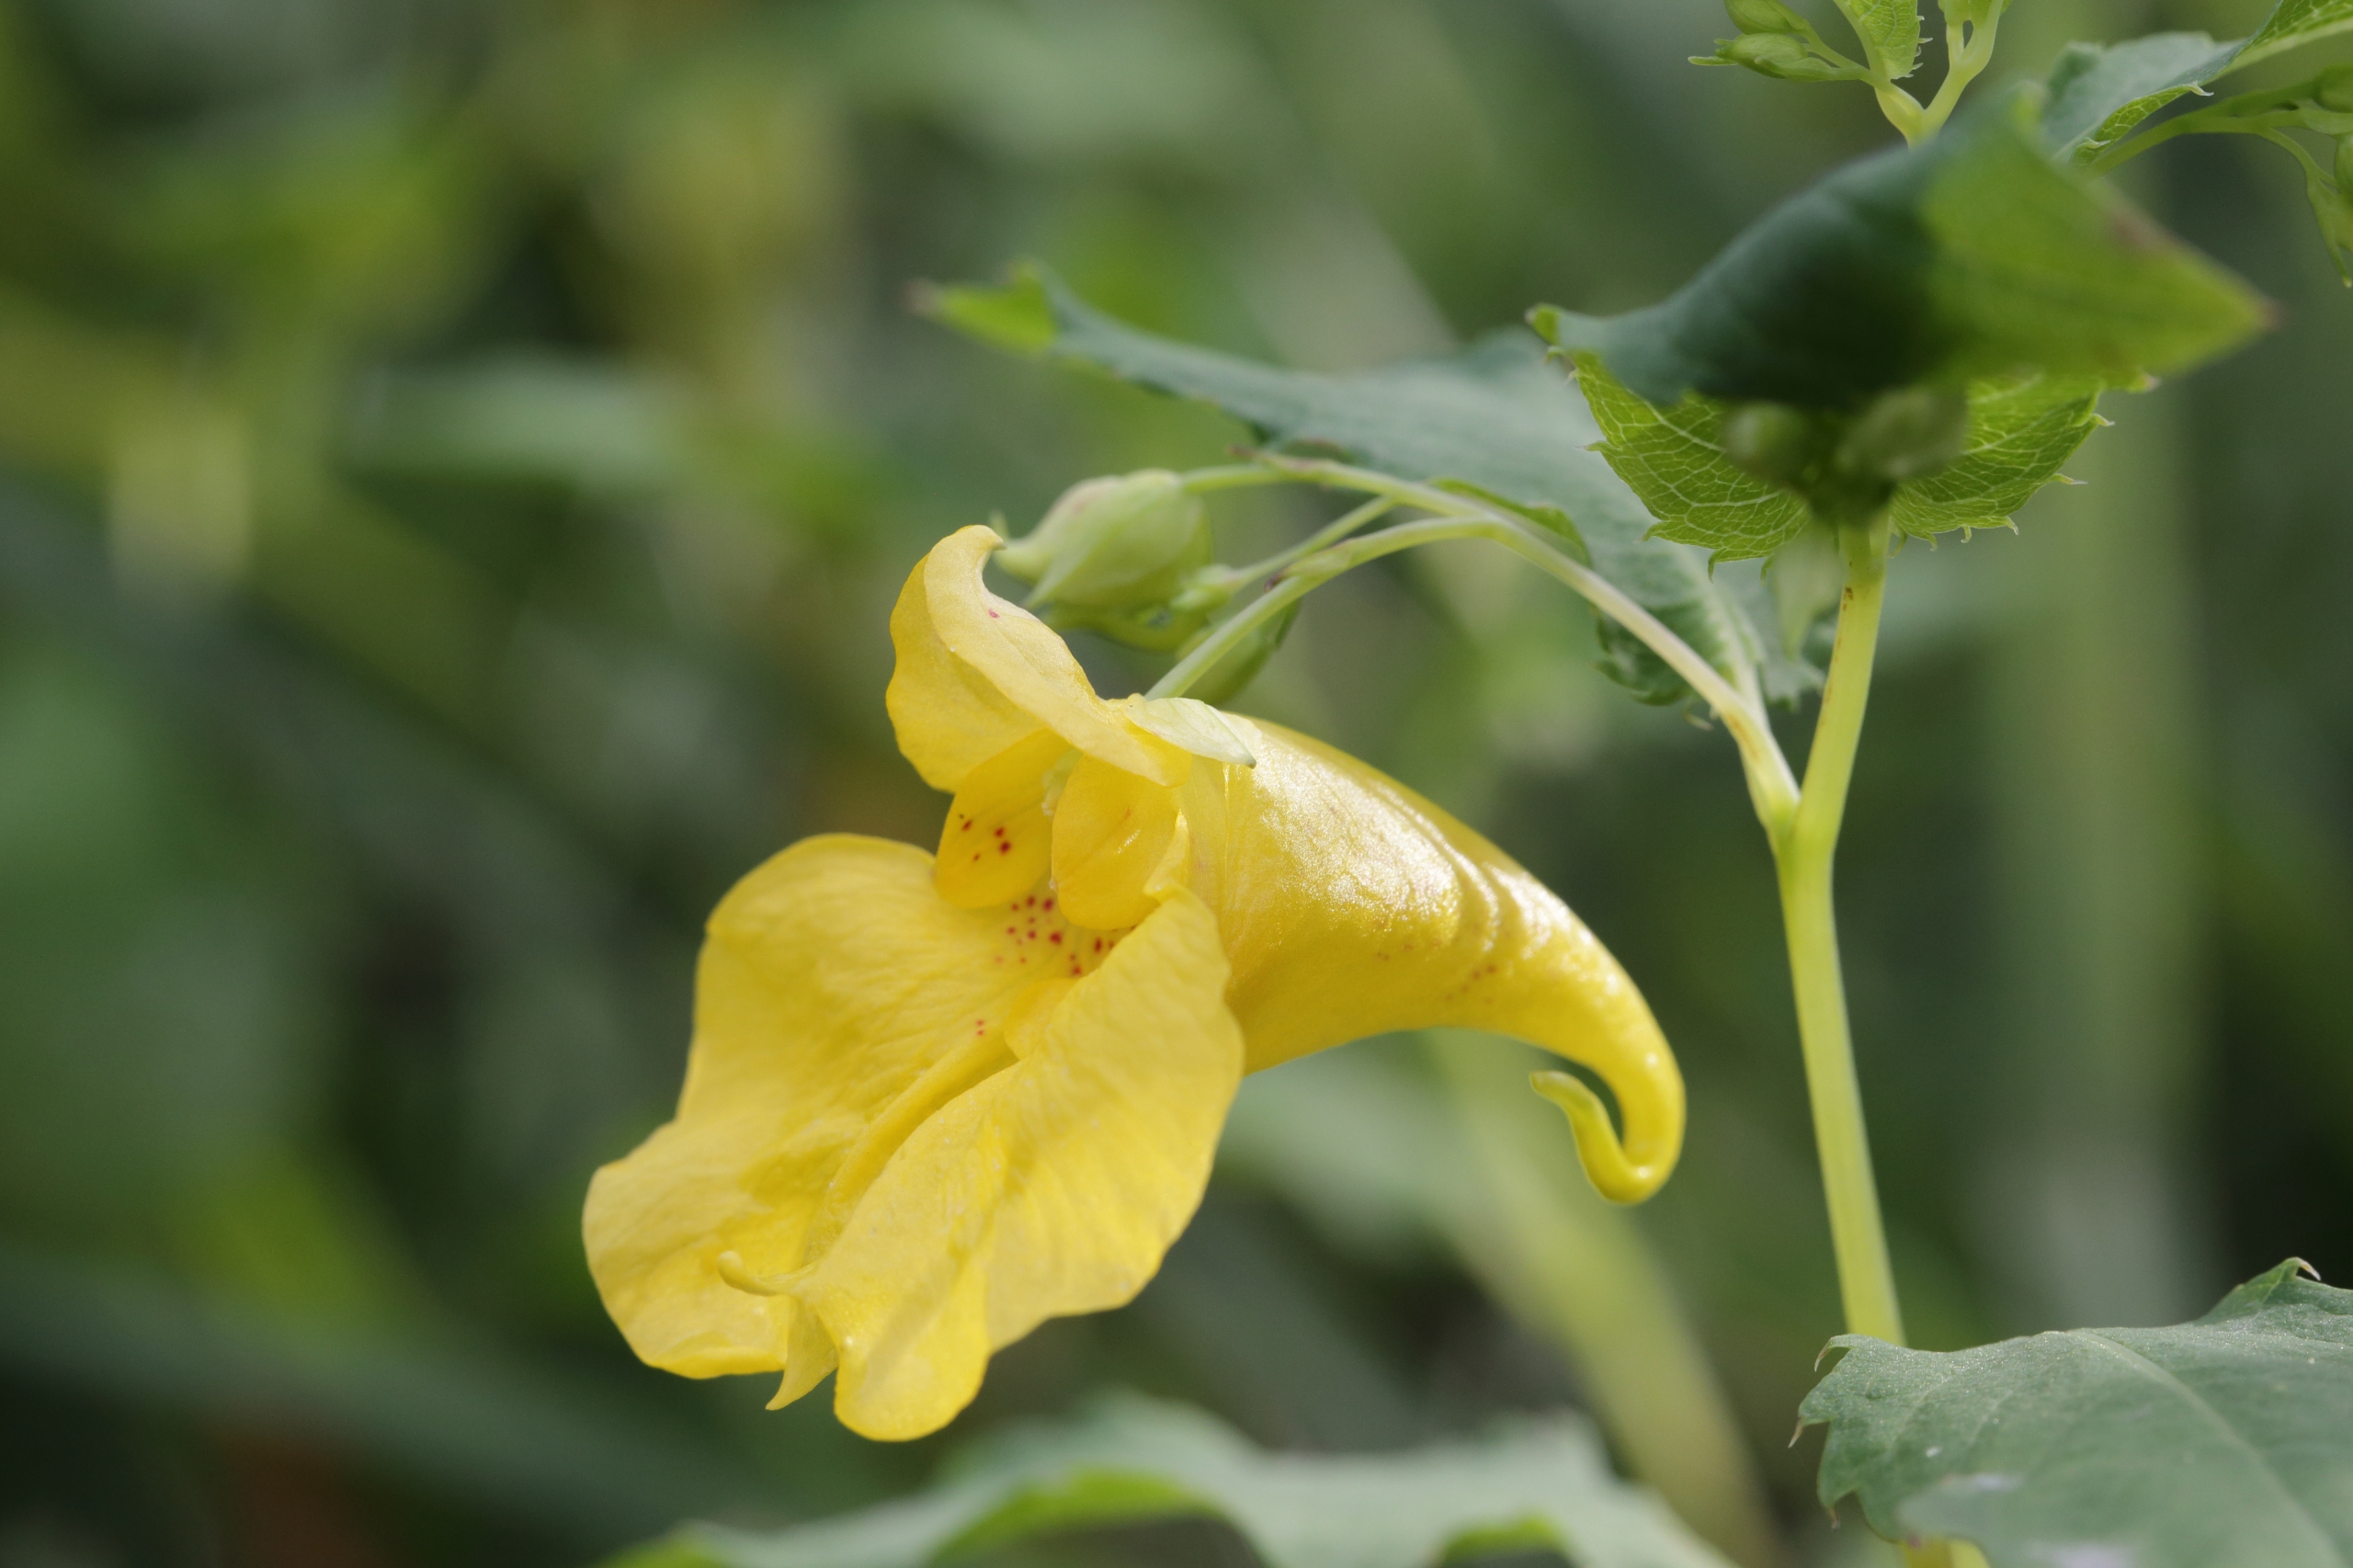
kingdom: Plantae
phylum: Tracheophyta
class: Magnoliopsida
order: Ericales
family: Balsaminaceae
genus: Impatiens
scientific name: Impatiens noli-tangere
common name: Spring-balsamin
